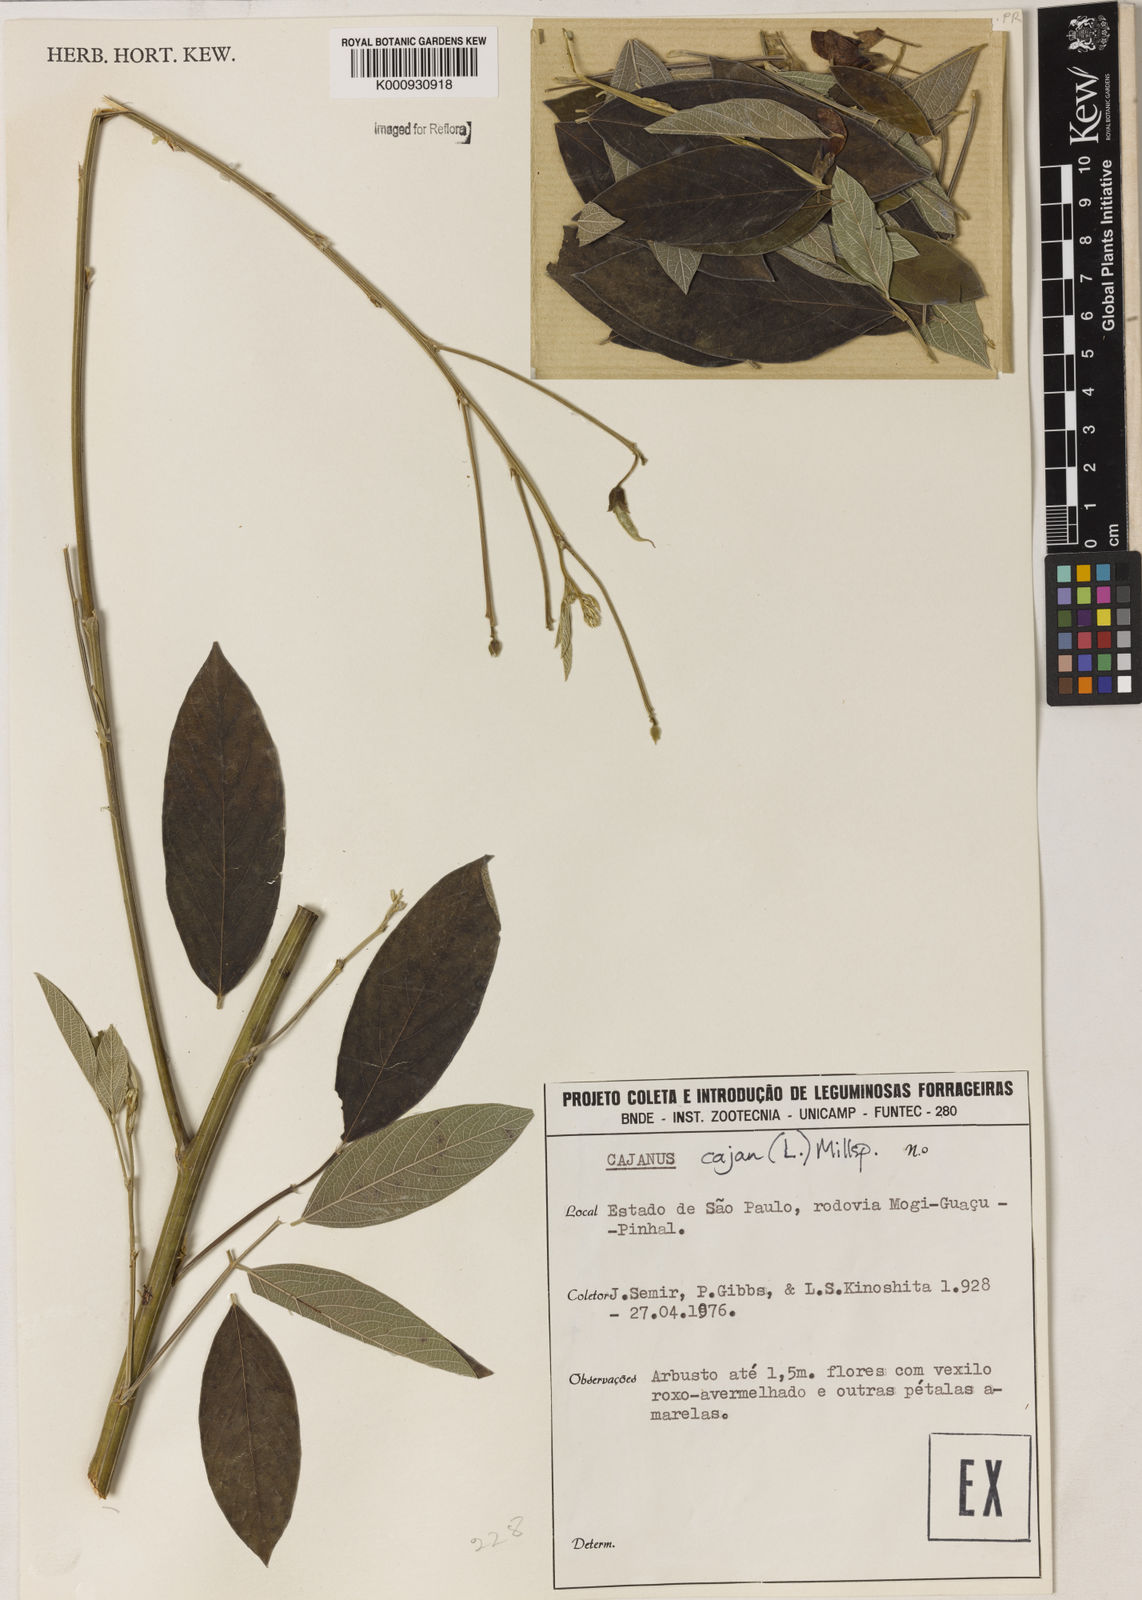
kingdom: Plantae
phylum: Tracheophyta
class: Magnoliopsida
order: Fabales
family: Fabaceae
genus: Cajanus
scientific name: Cajanus
